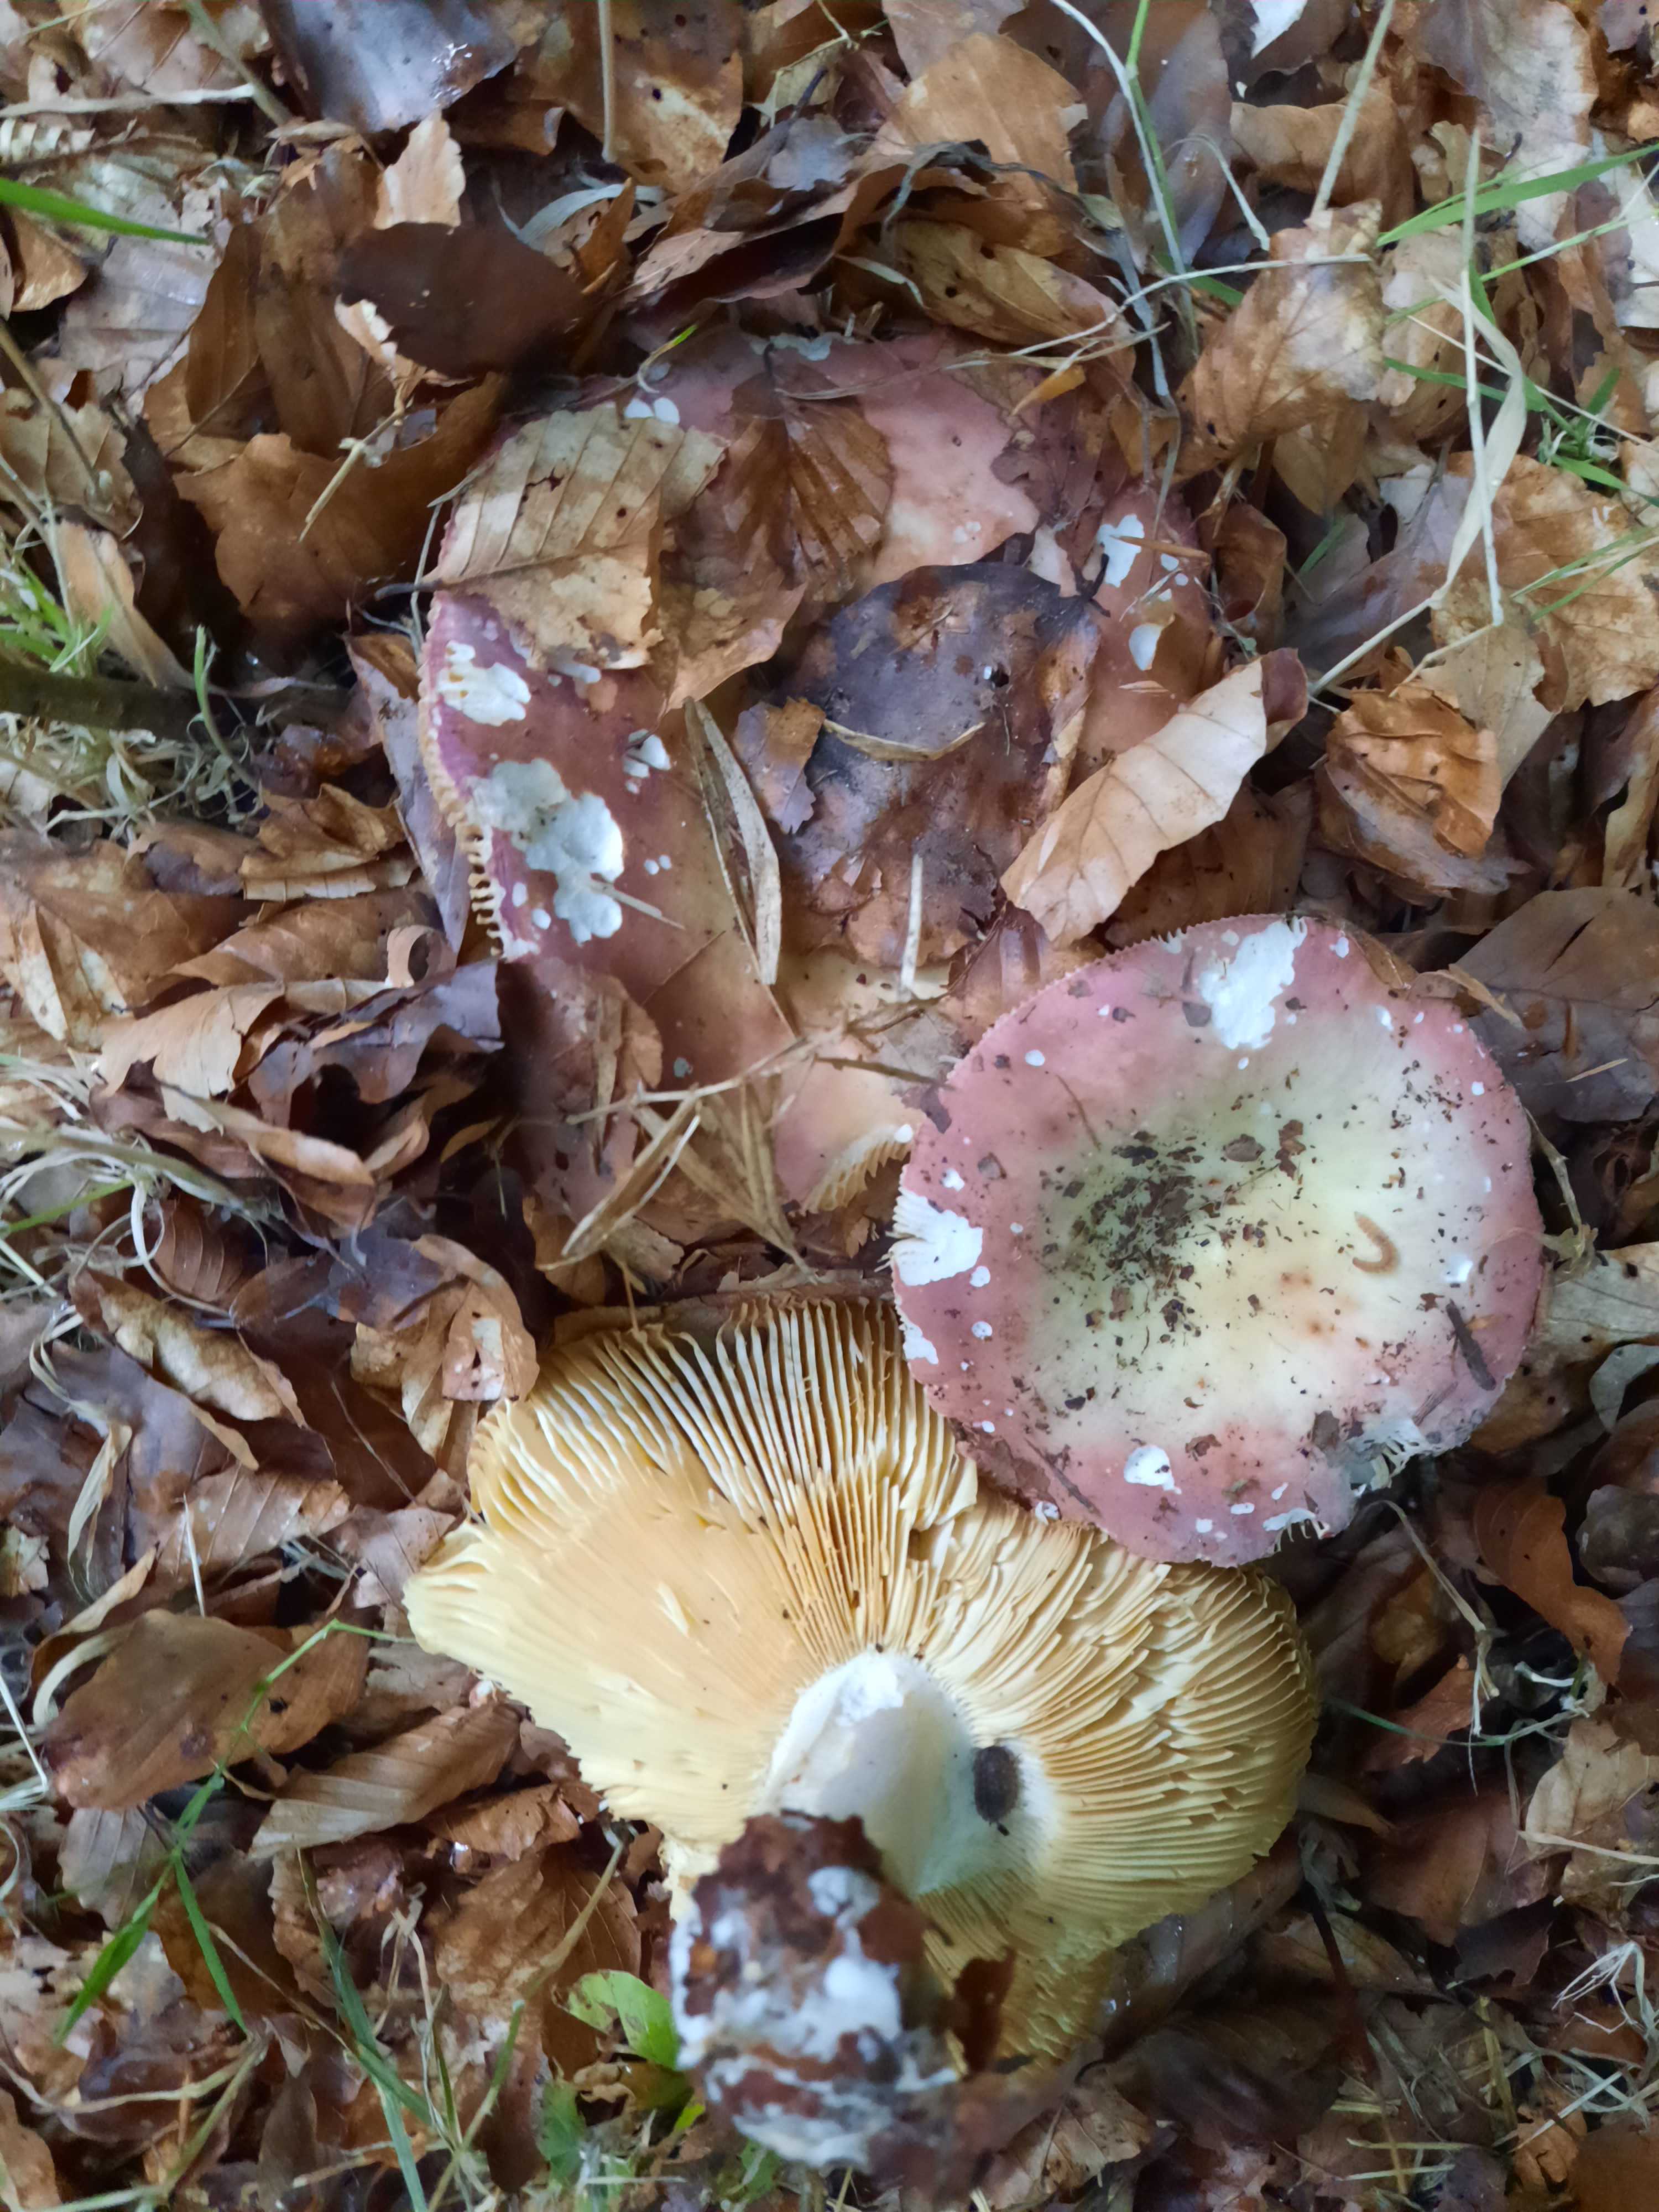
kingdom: Fungi
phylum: Basidiomycota
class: Agaricomycetes
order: Russulales
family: Russulaceae
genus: Russula
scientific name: Russula olivacea
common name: stor skørhat
